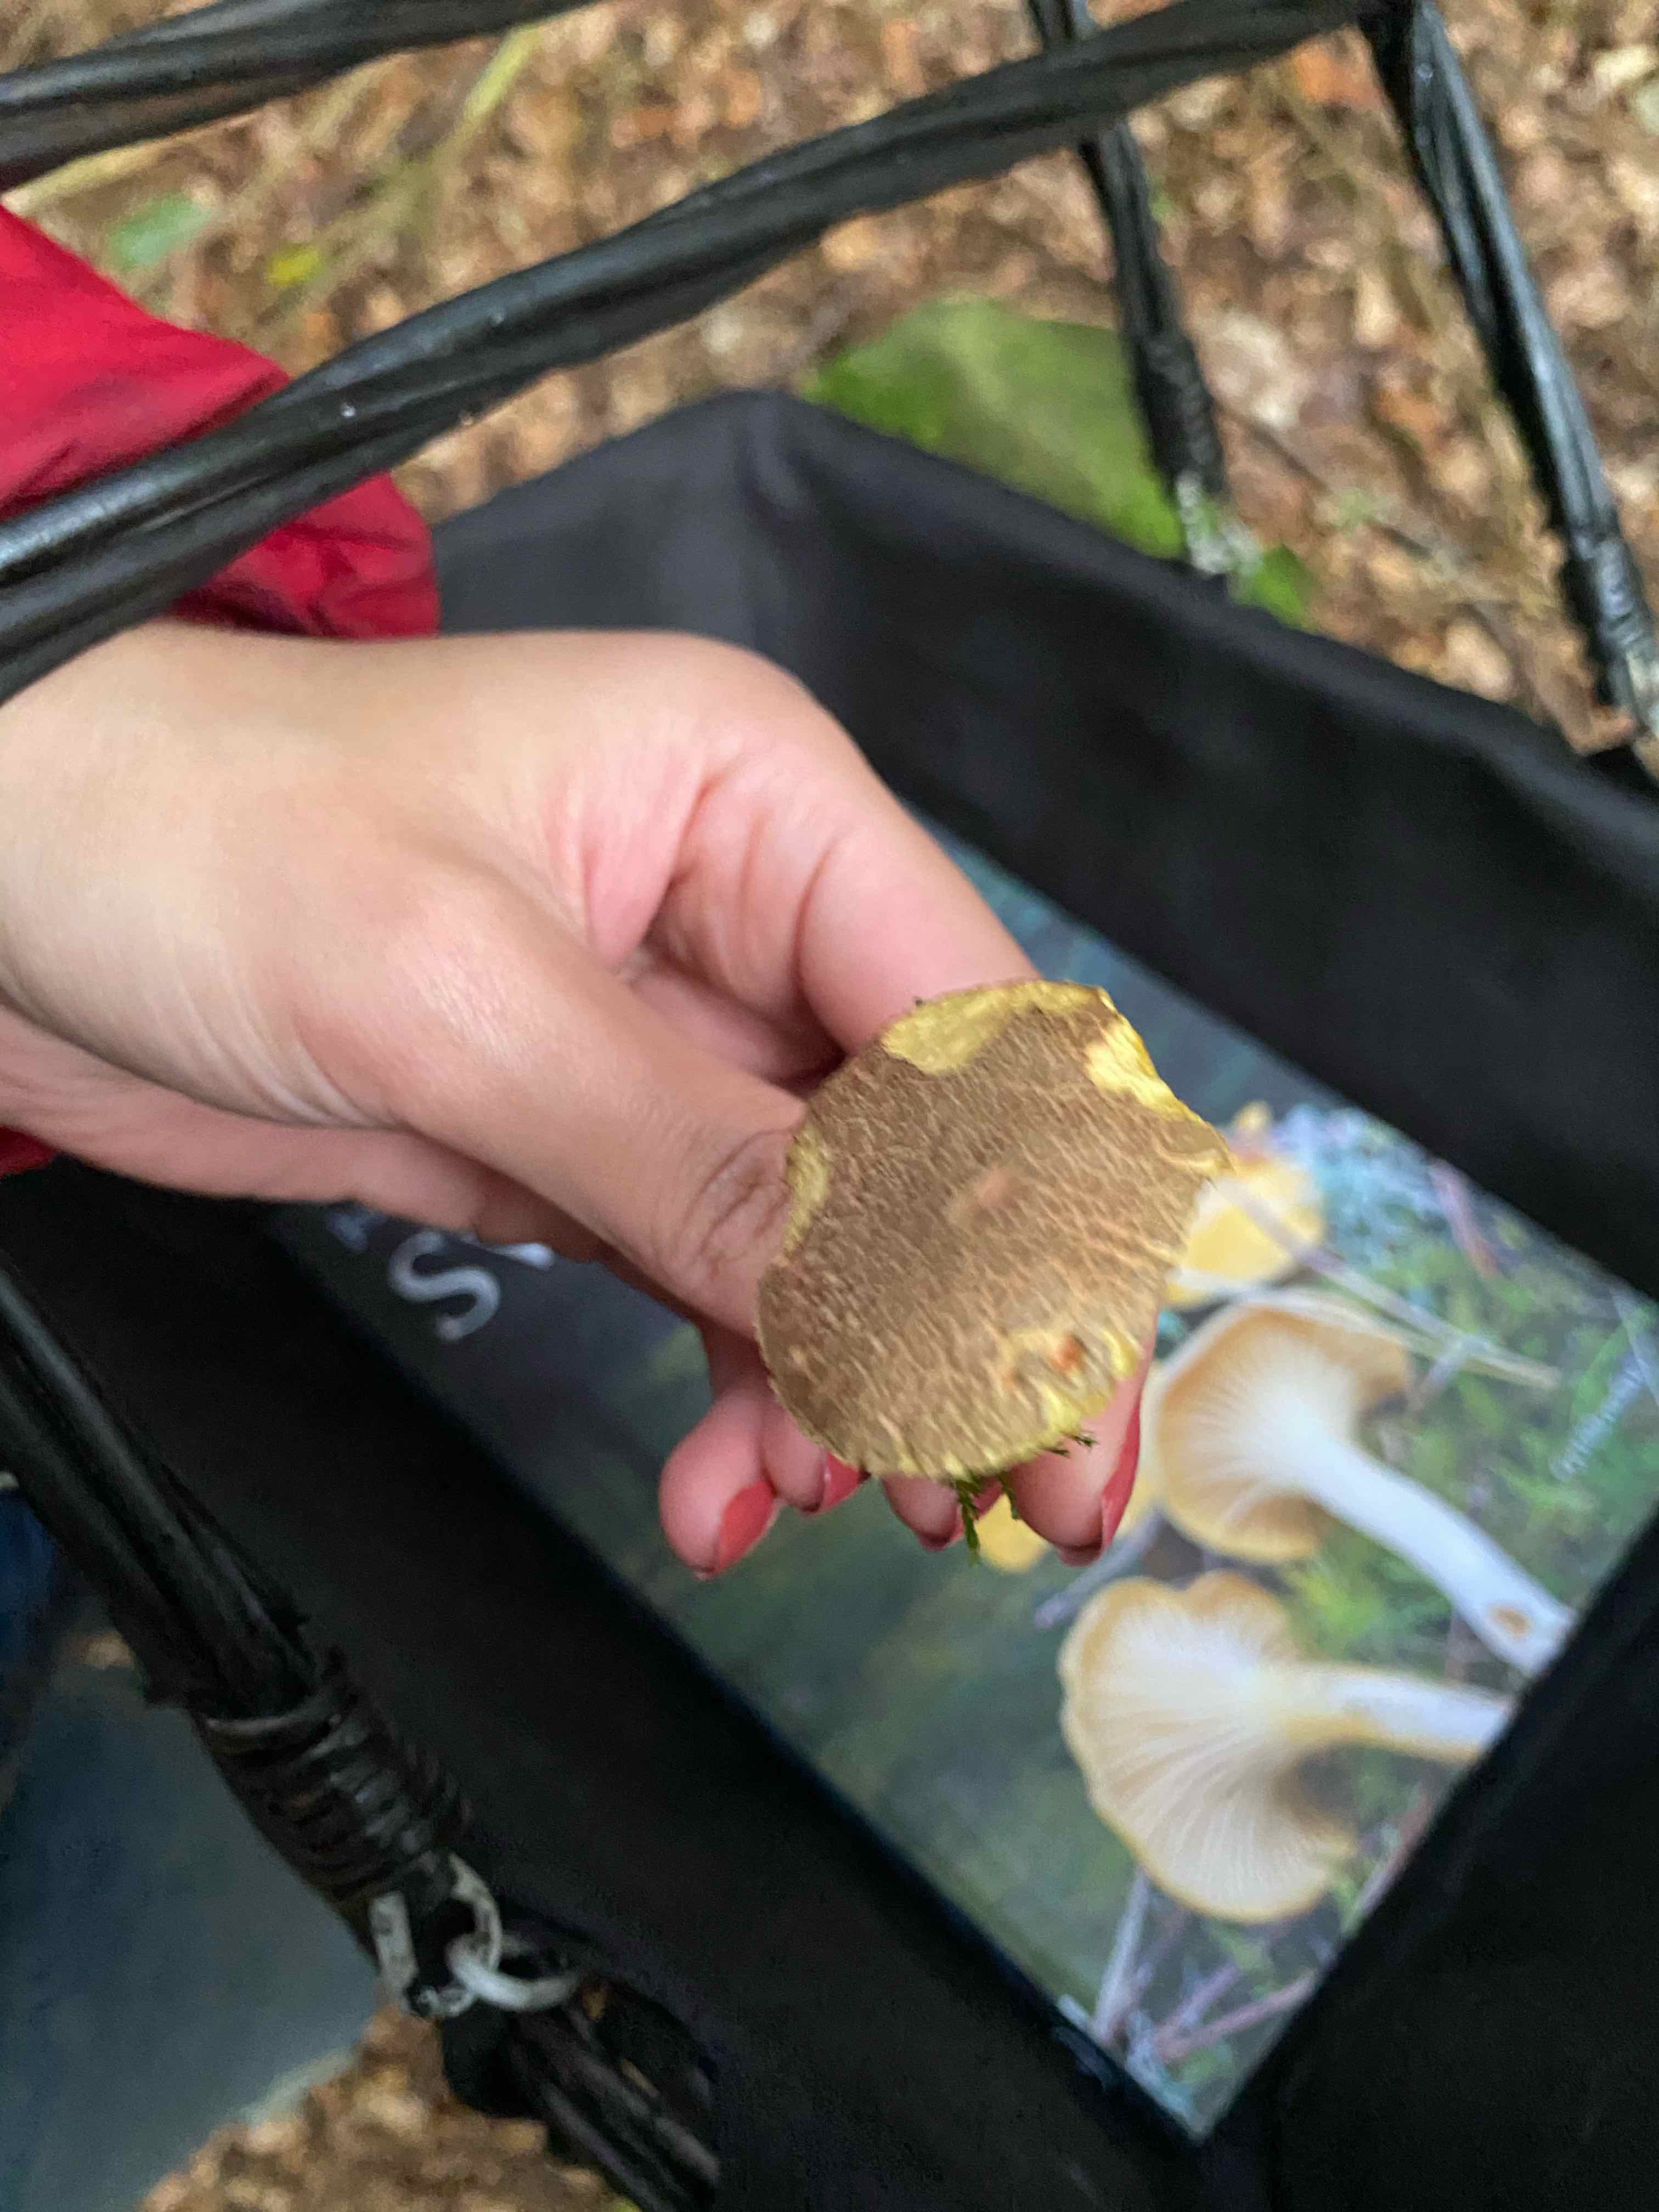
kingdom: Fungi
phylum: Basidiomycota
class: Agaricomycetes
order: Boletales
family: Boletaceae
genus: Xerocomellus
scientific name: Xerocomellus
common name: dværgrørhat
